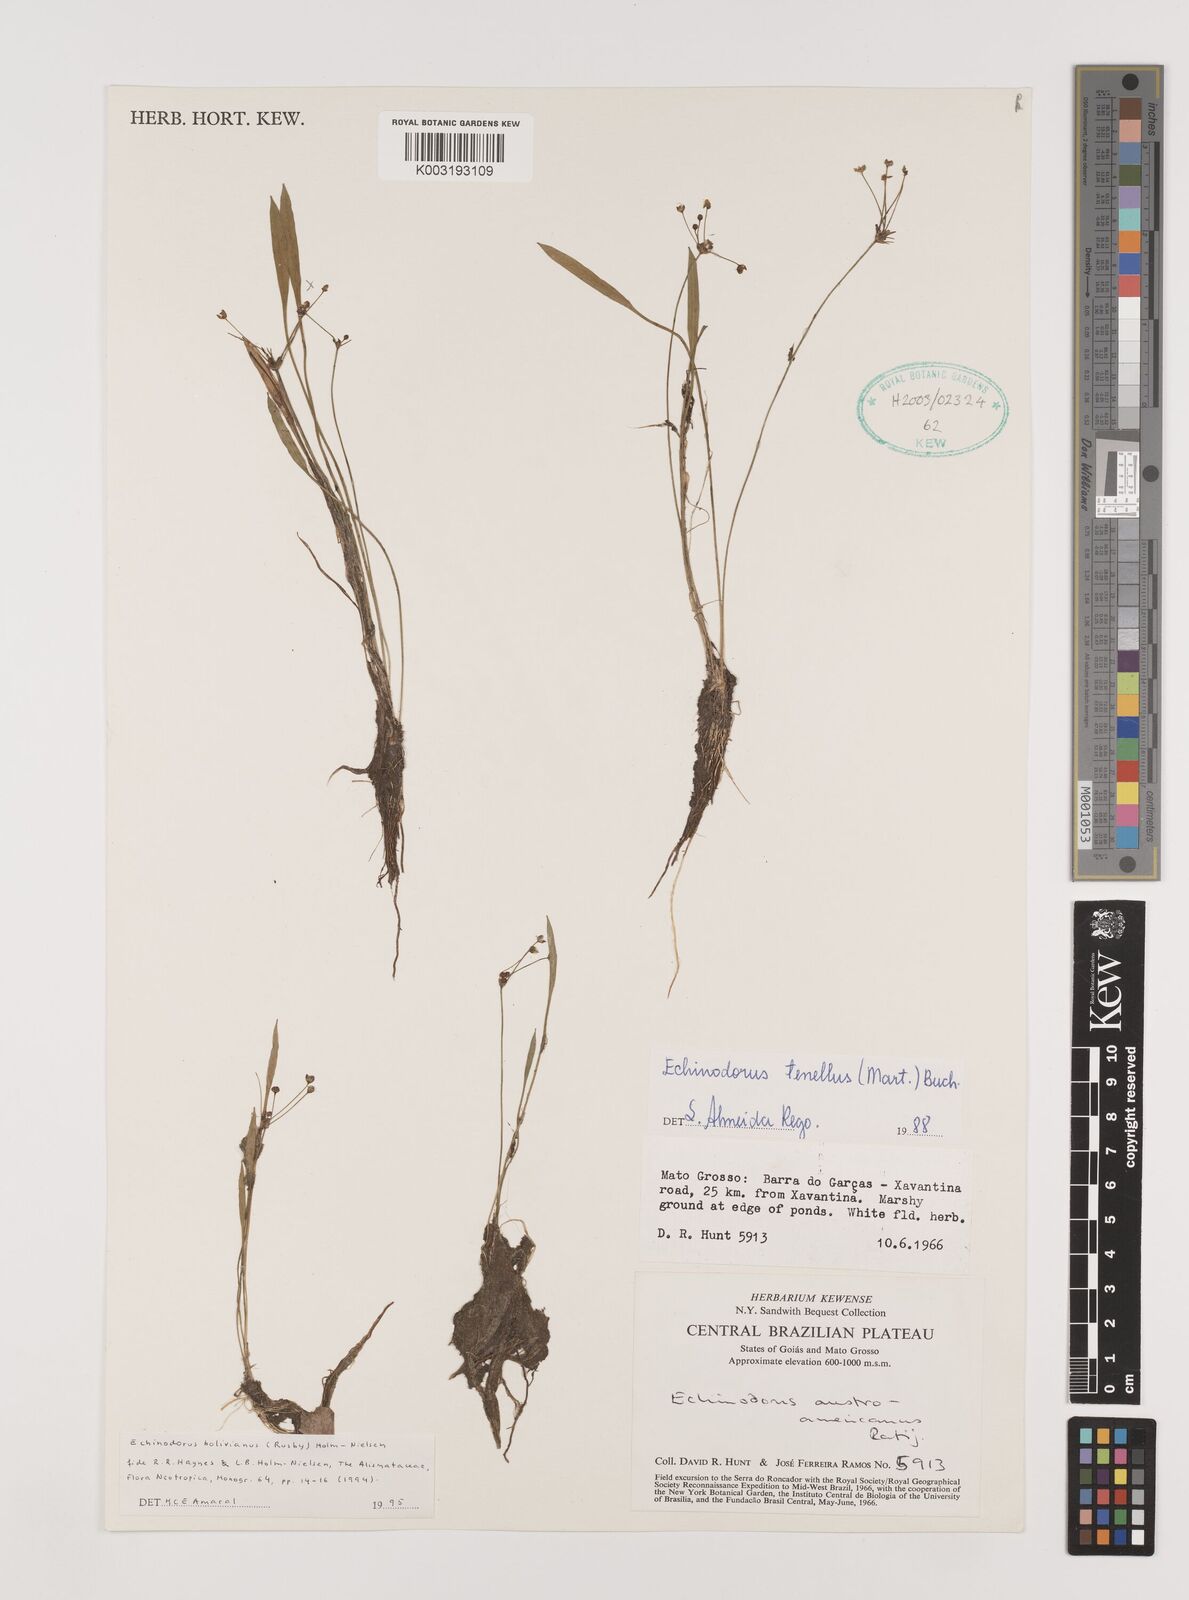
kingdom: Plantae
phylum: Tracheophyta
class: Liliopsida
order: Alismatales
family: Alismataceae
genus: Helanthium
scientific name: Helanthium bolivianum
